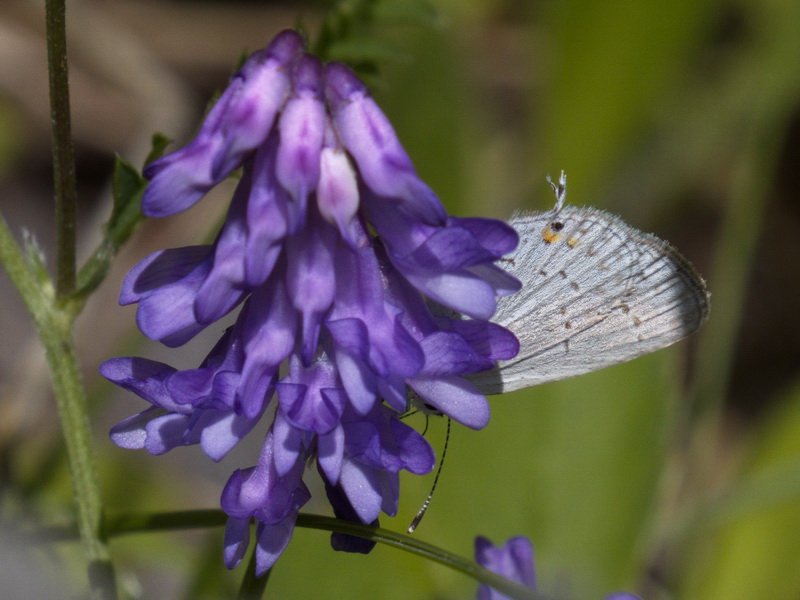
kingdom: Animalia
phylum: Arthropoda
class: Insecta
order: Lepidoptera
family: Lycaenidae
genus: Elkalyce
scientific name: Elkalyce amyntula
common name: Western Tailed-Blue
